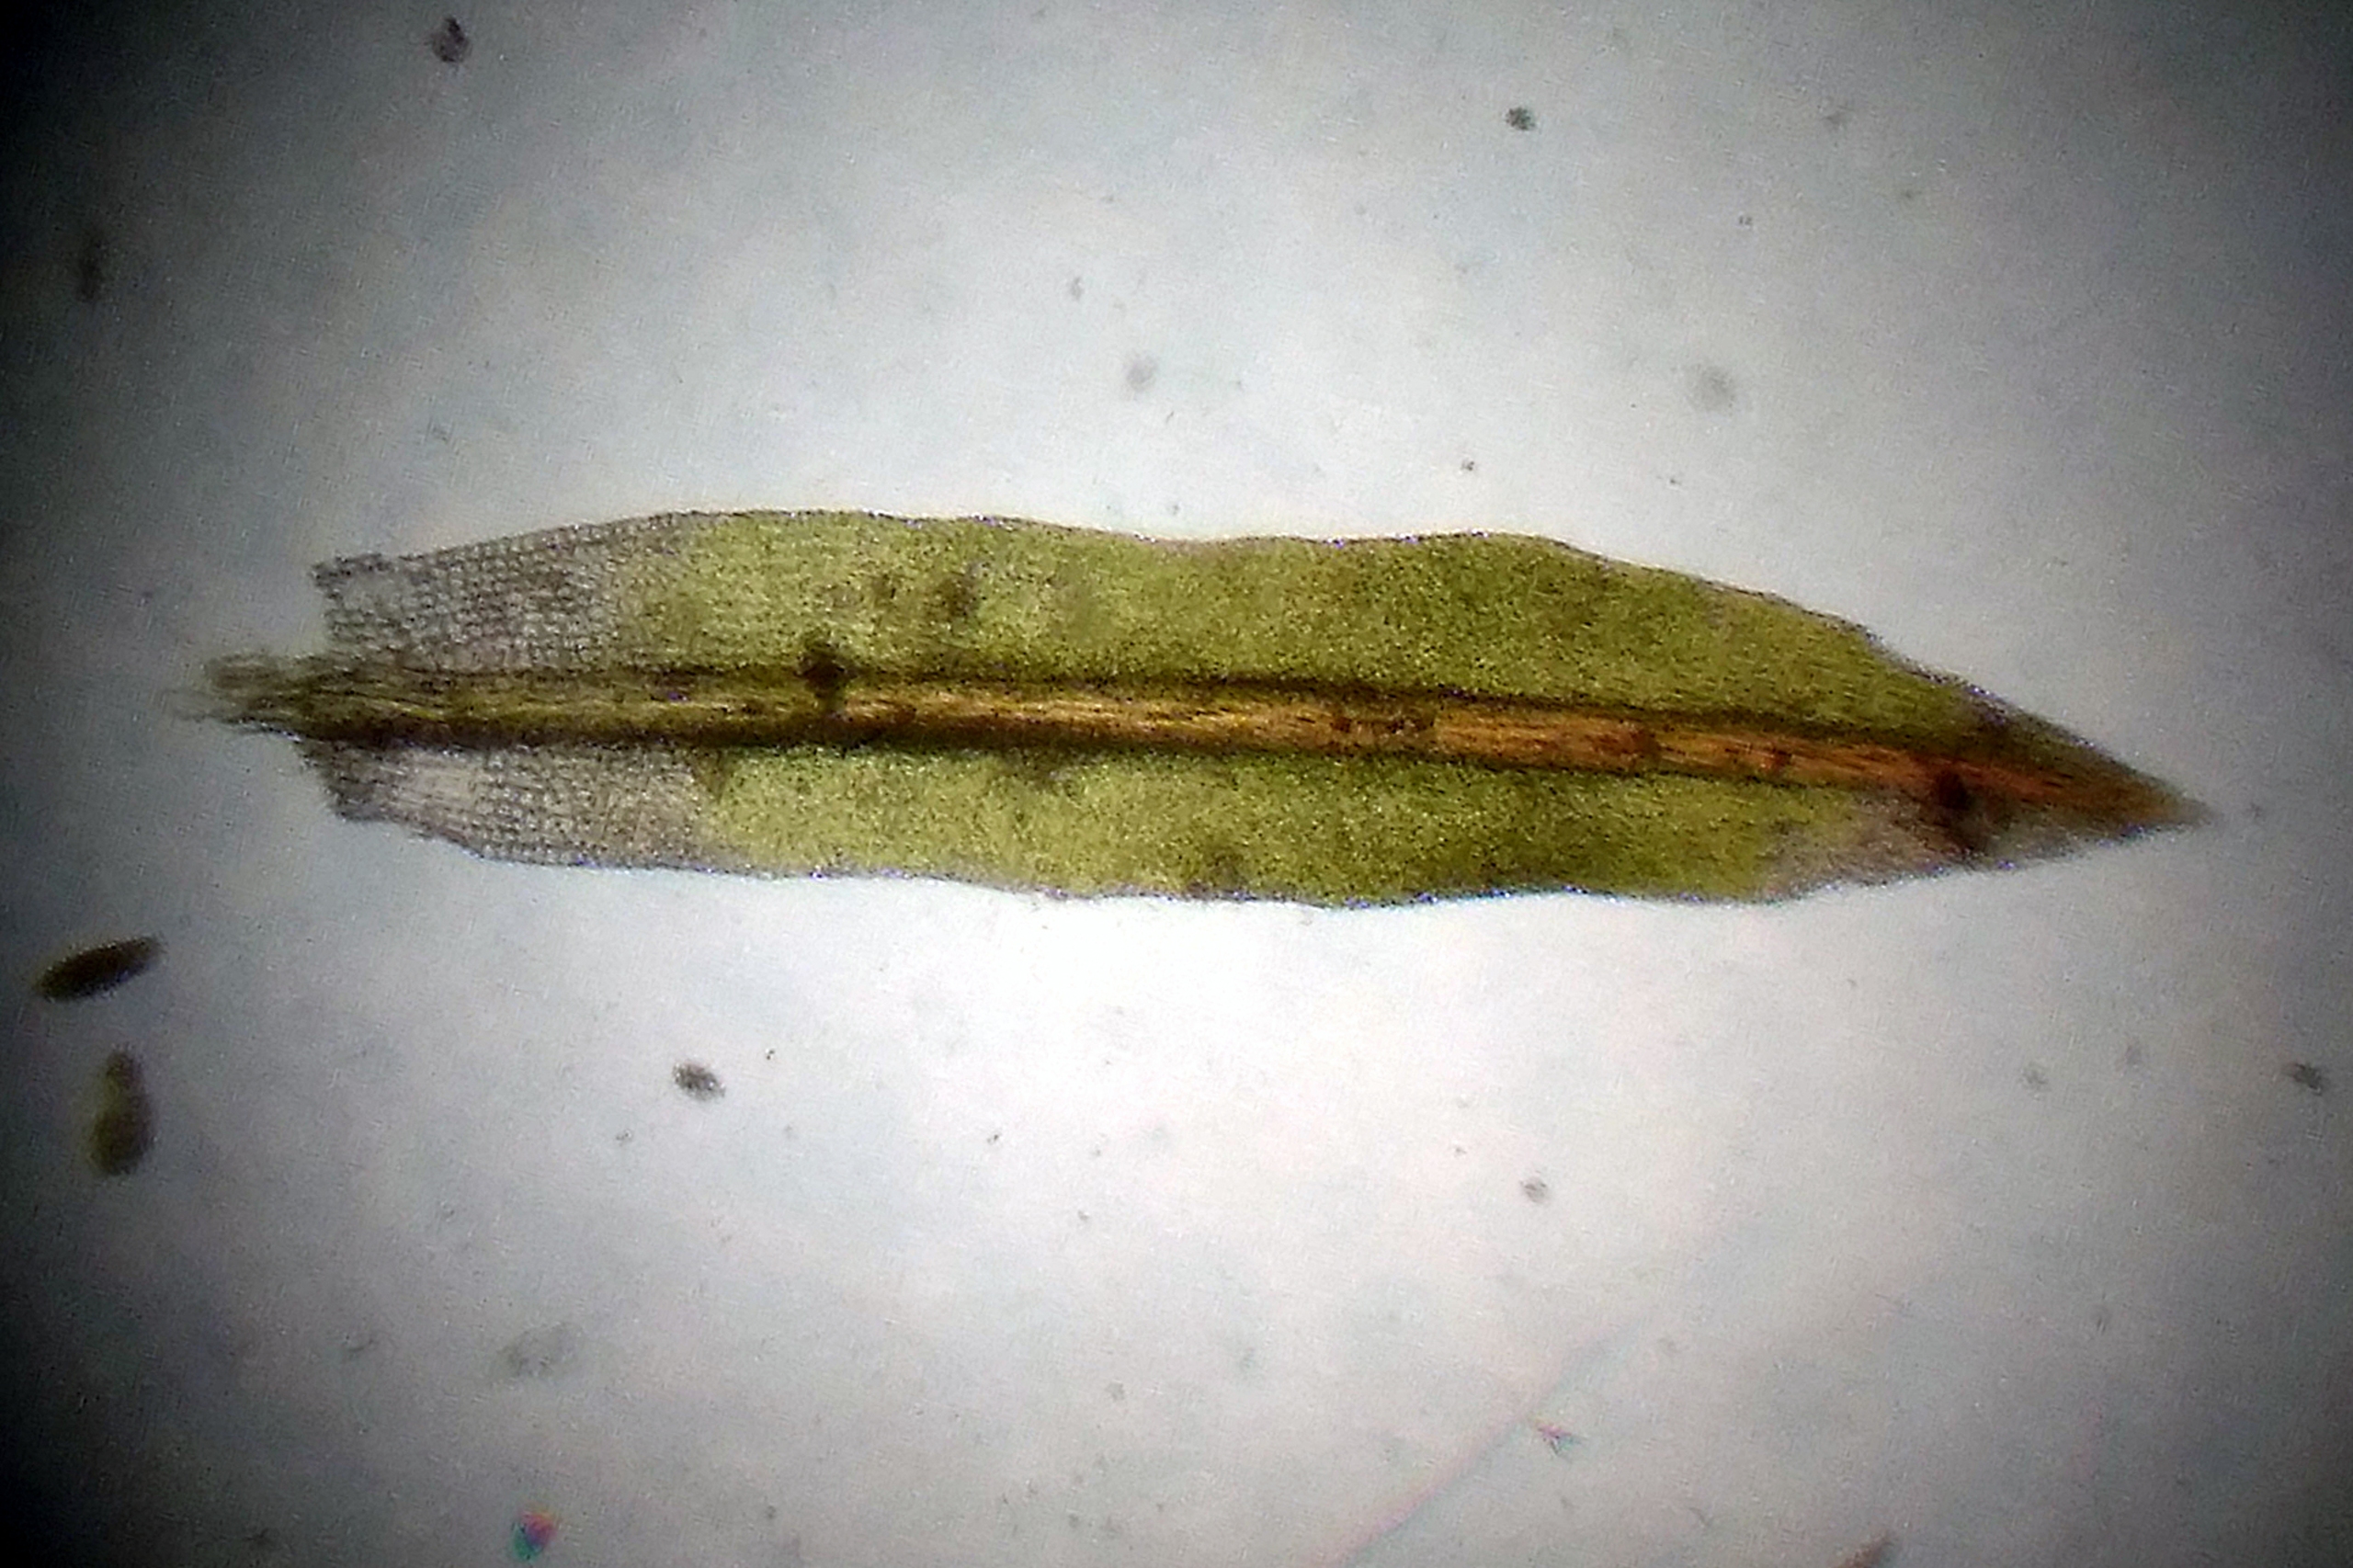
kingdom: Plantae
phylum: Bryophyta
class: Bryopsida
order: Orthotrichales
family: Orthotrichaceae
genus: Zygodon
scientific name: Zygodon rupestris
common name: Almindelig køllemos
